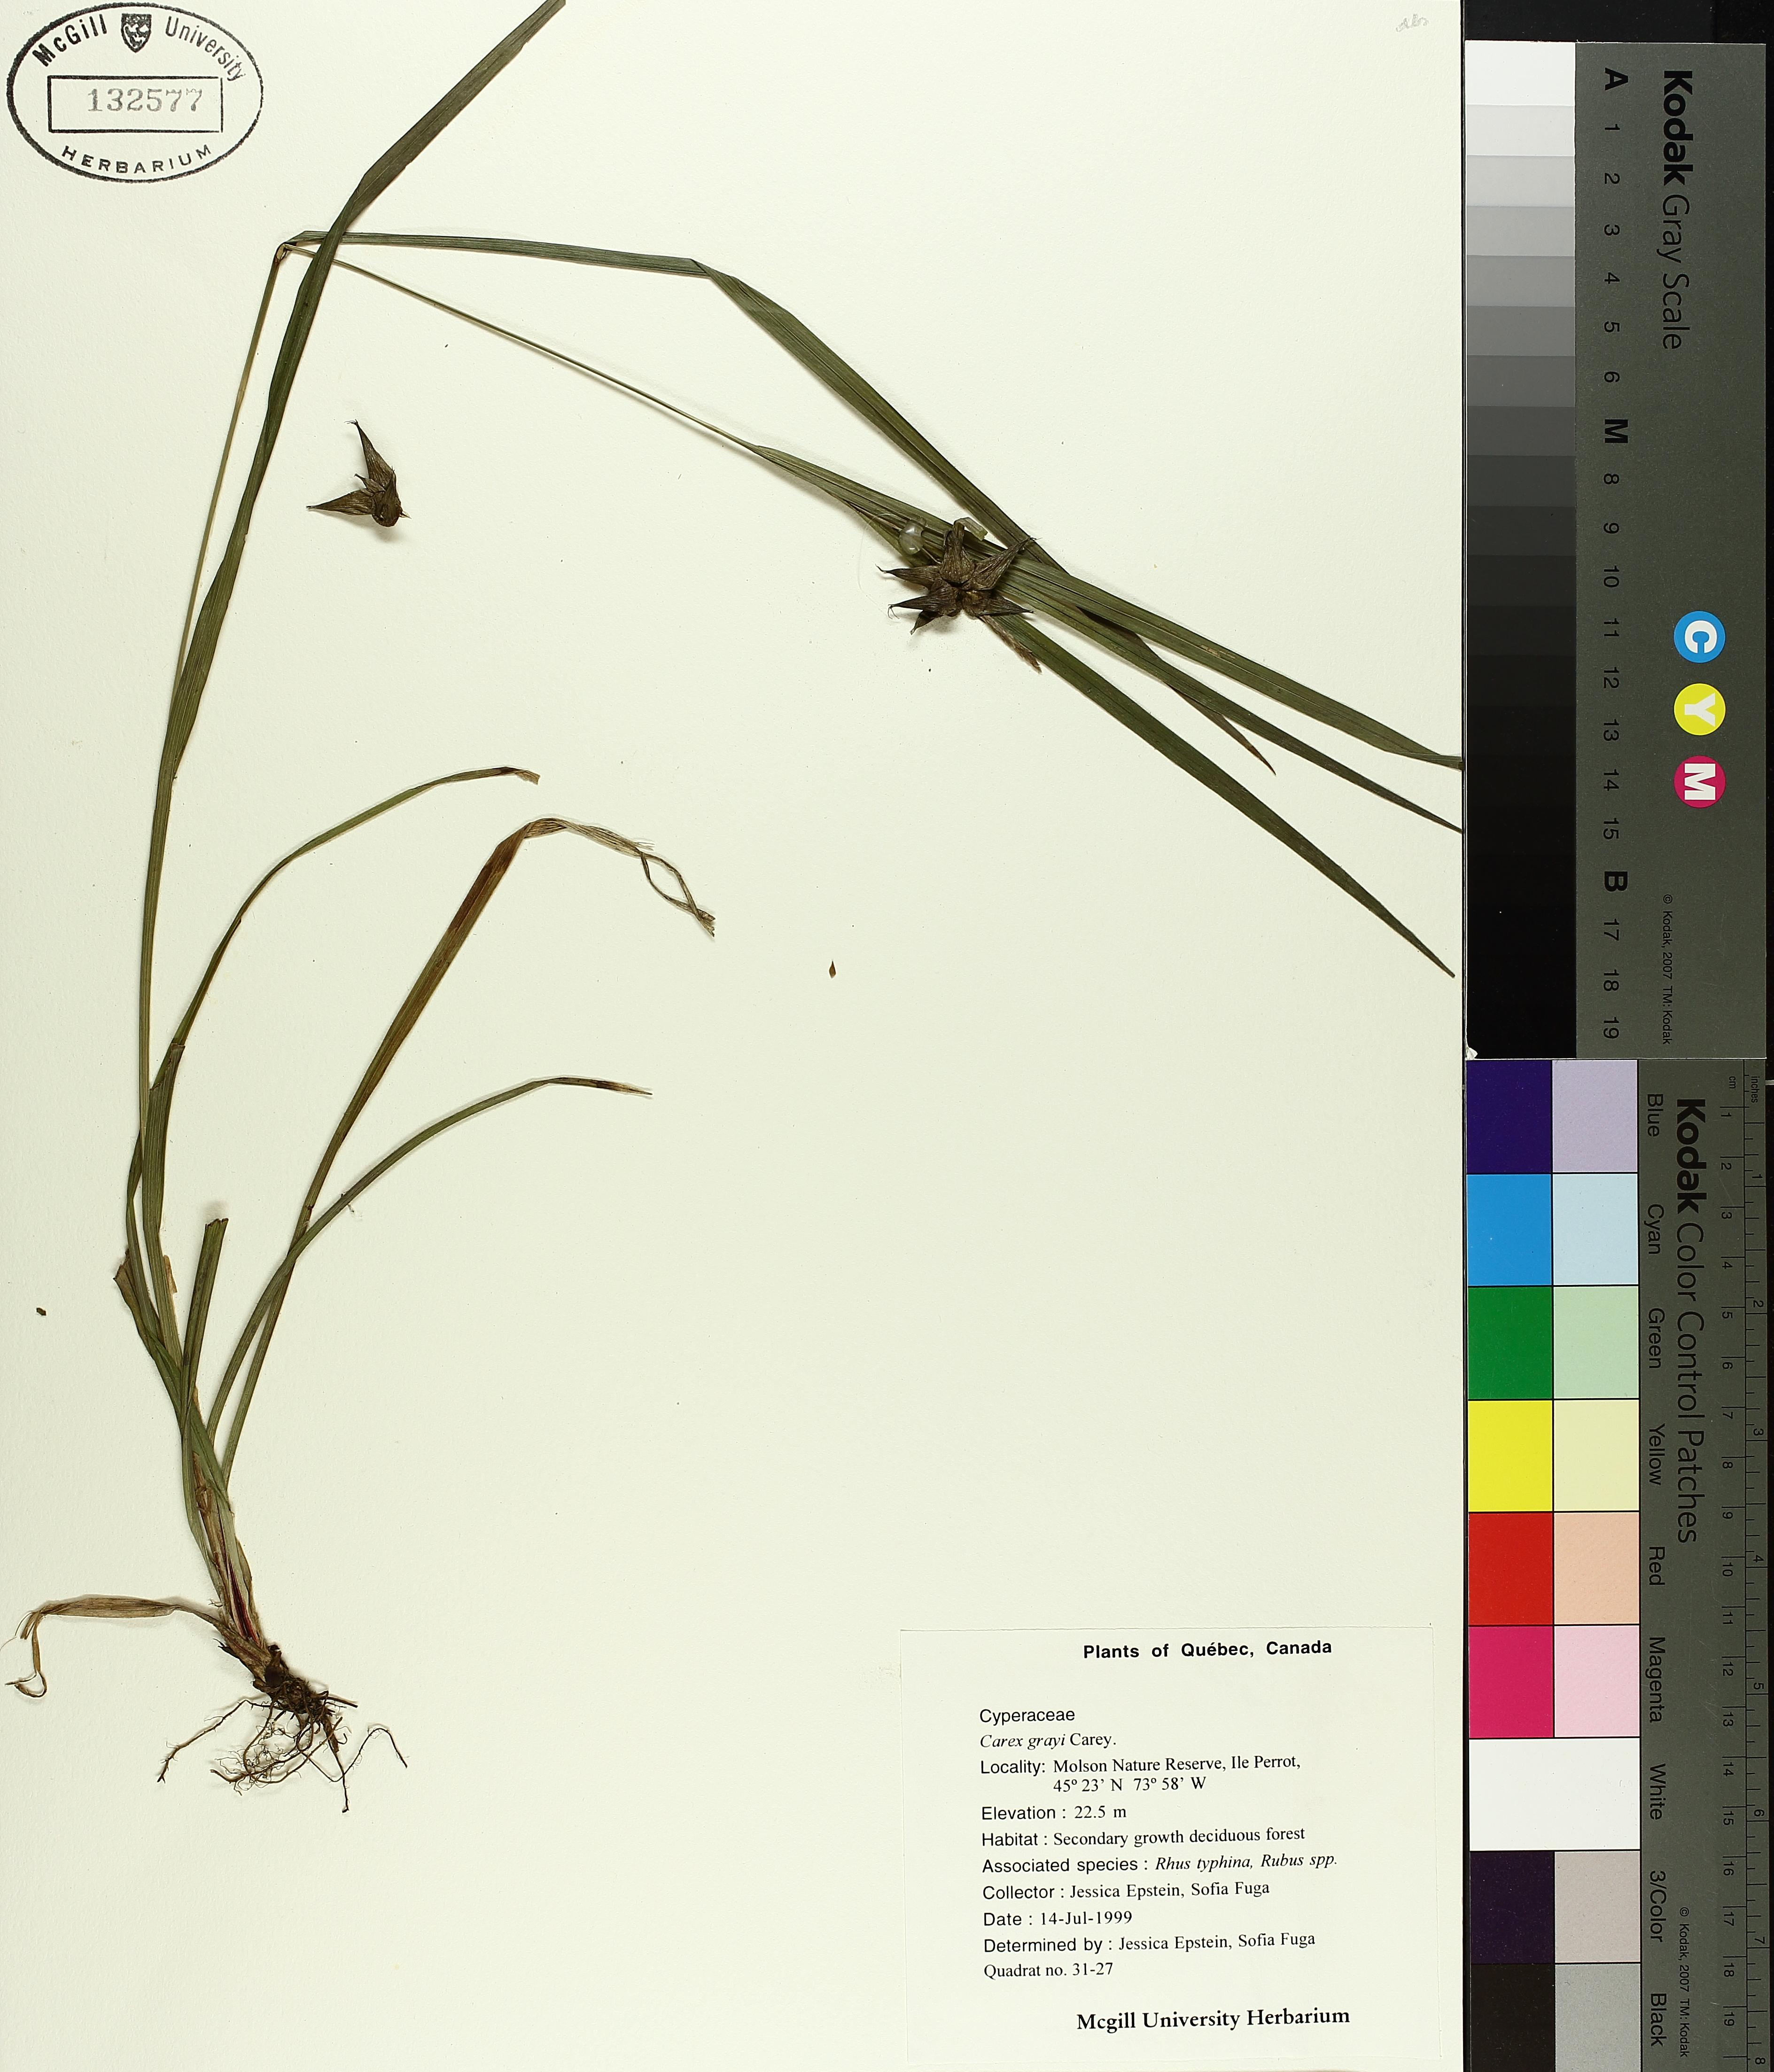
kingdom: Plantae
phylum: Tracheophyta
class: Liliopsida
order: Poales
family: Cyperaceae
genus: Carex
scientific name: Carex grayi
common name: Asa gray's sedge
